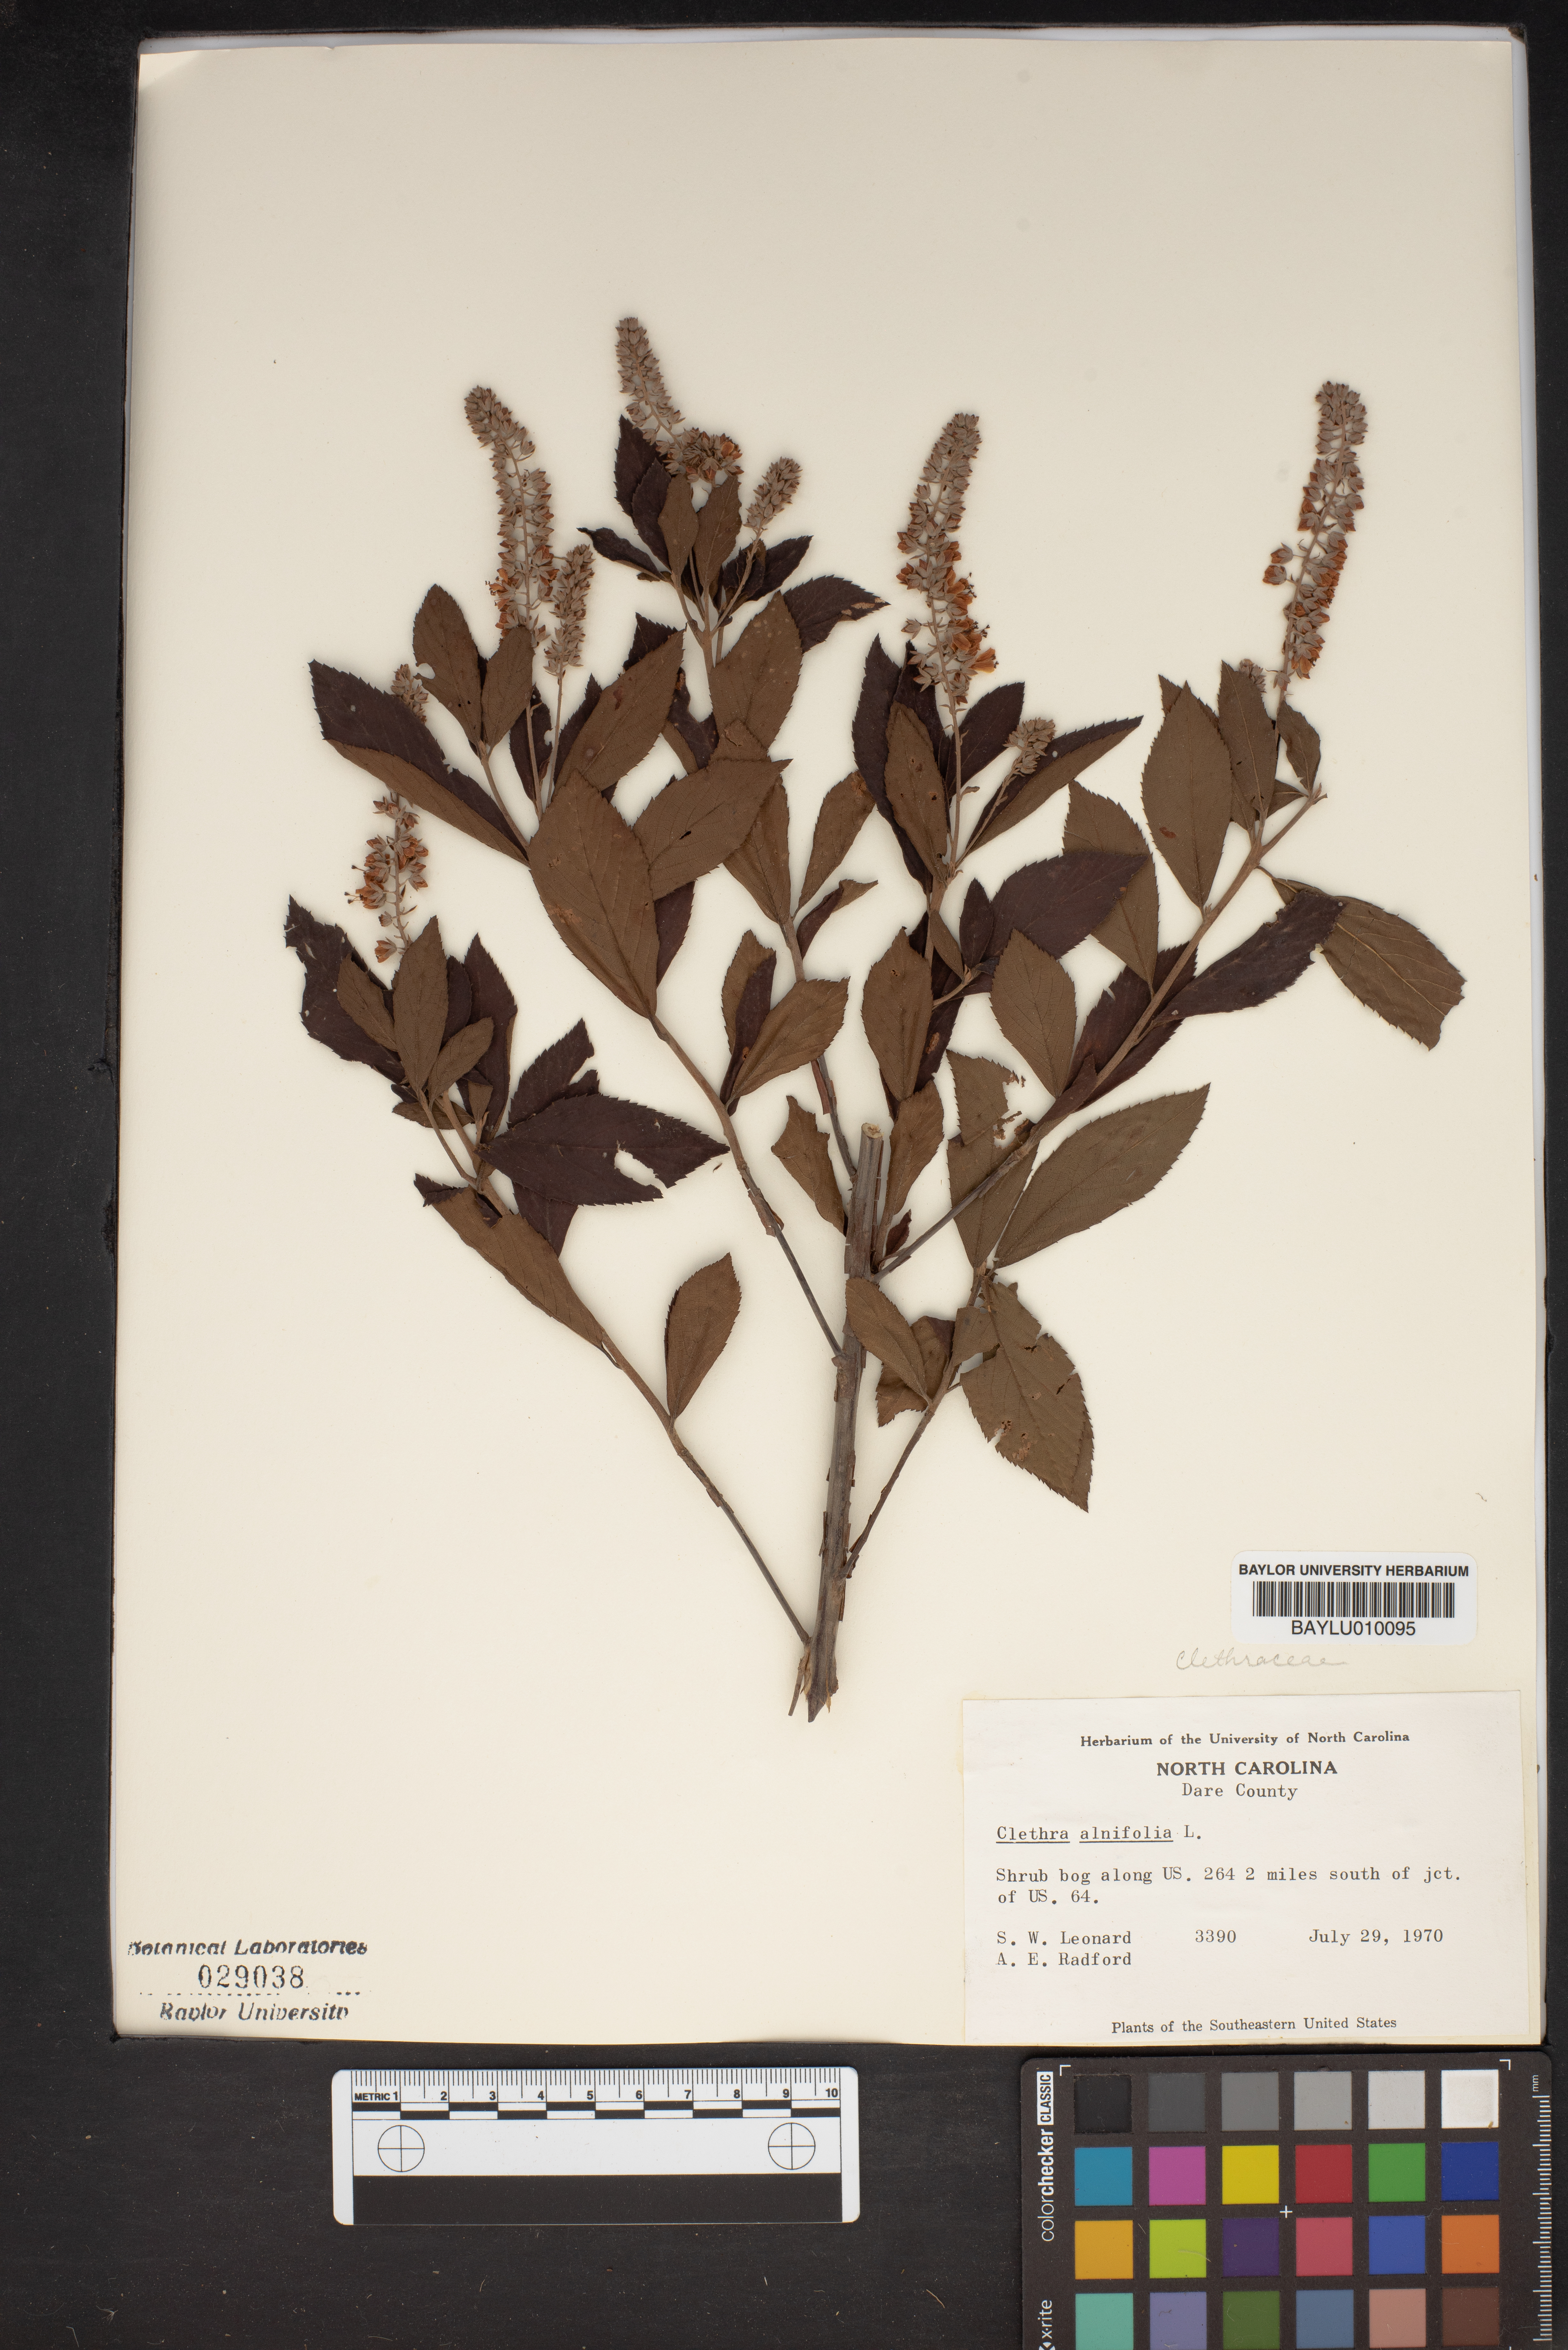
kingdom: Plantae
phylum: Tracheophyta
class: Magnoliopsida
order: Ericales
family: Clethraceae
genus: Clethra
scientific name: Clethra alnifolia
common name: Sweet pepperbush
